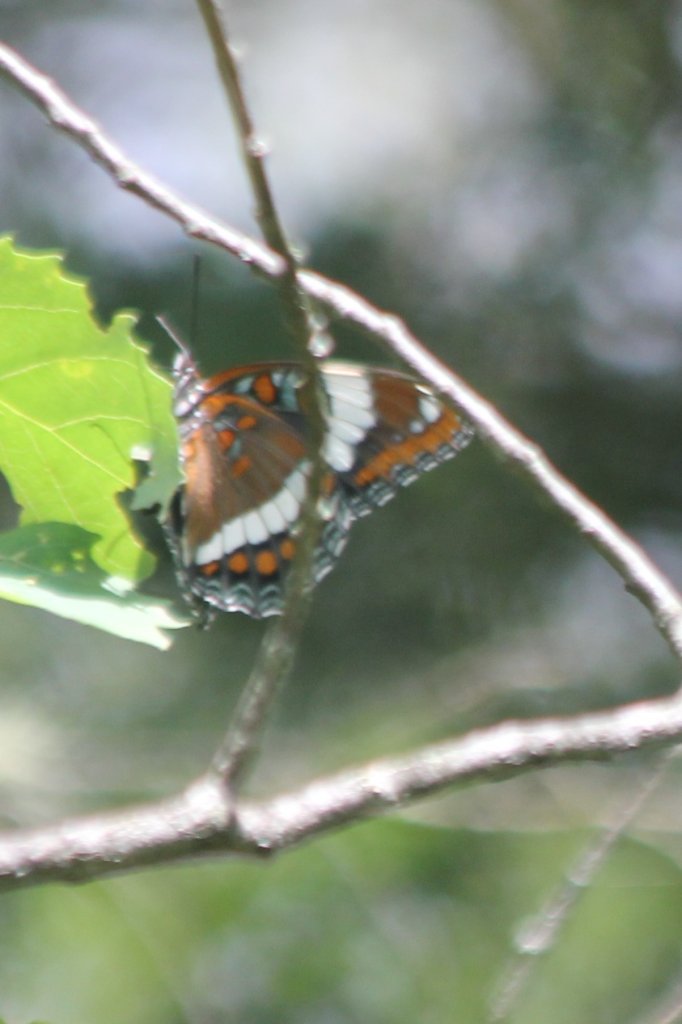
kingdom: Animalia
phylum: Arthropoda
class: Insecta
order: Lepidoptera
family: Nymphalidae
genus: Limenitis
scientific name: Limenitis arthemis
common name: Red-spotted Admiral
